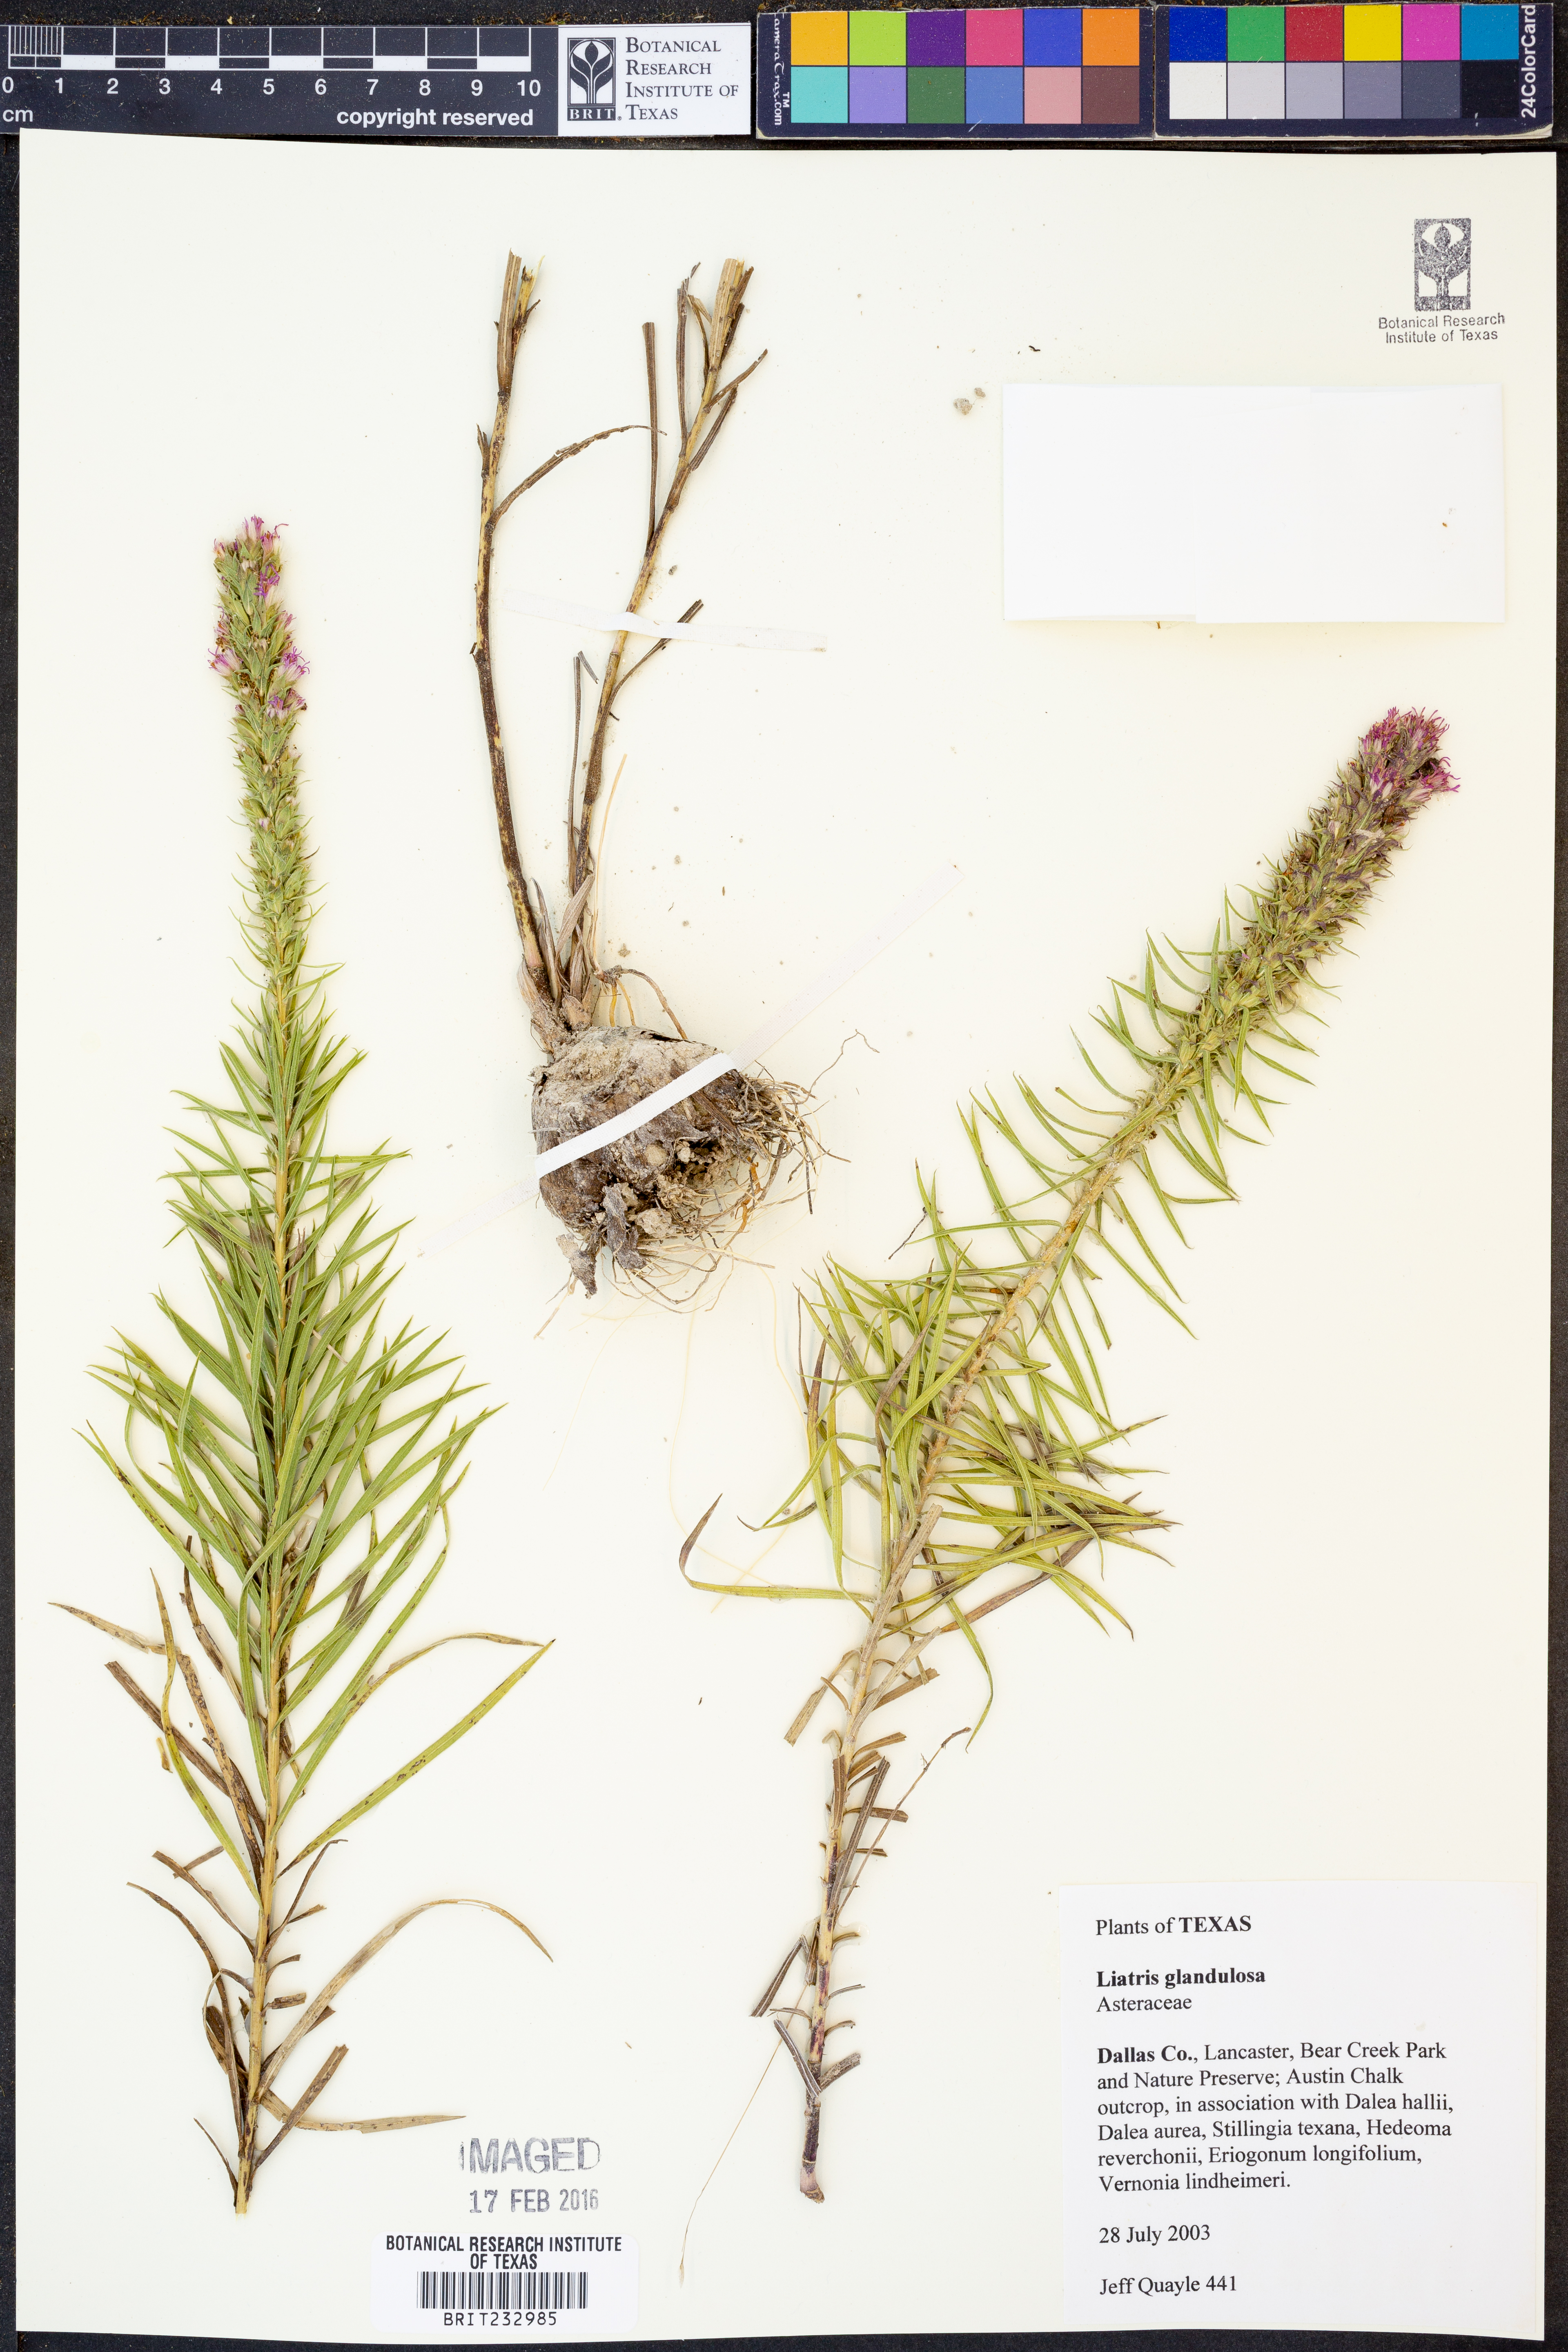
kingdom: Plantae
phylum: Tracheophyta
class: Magnoliopsida
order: Asterales
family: Asteraceae
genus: Liatris
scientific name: Liatris glandulosa
